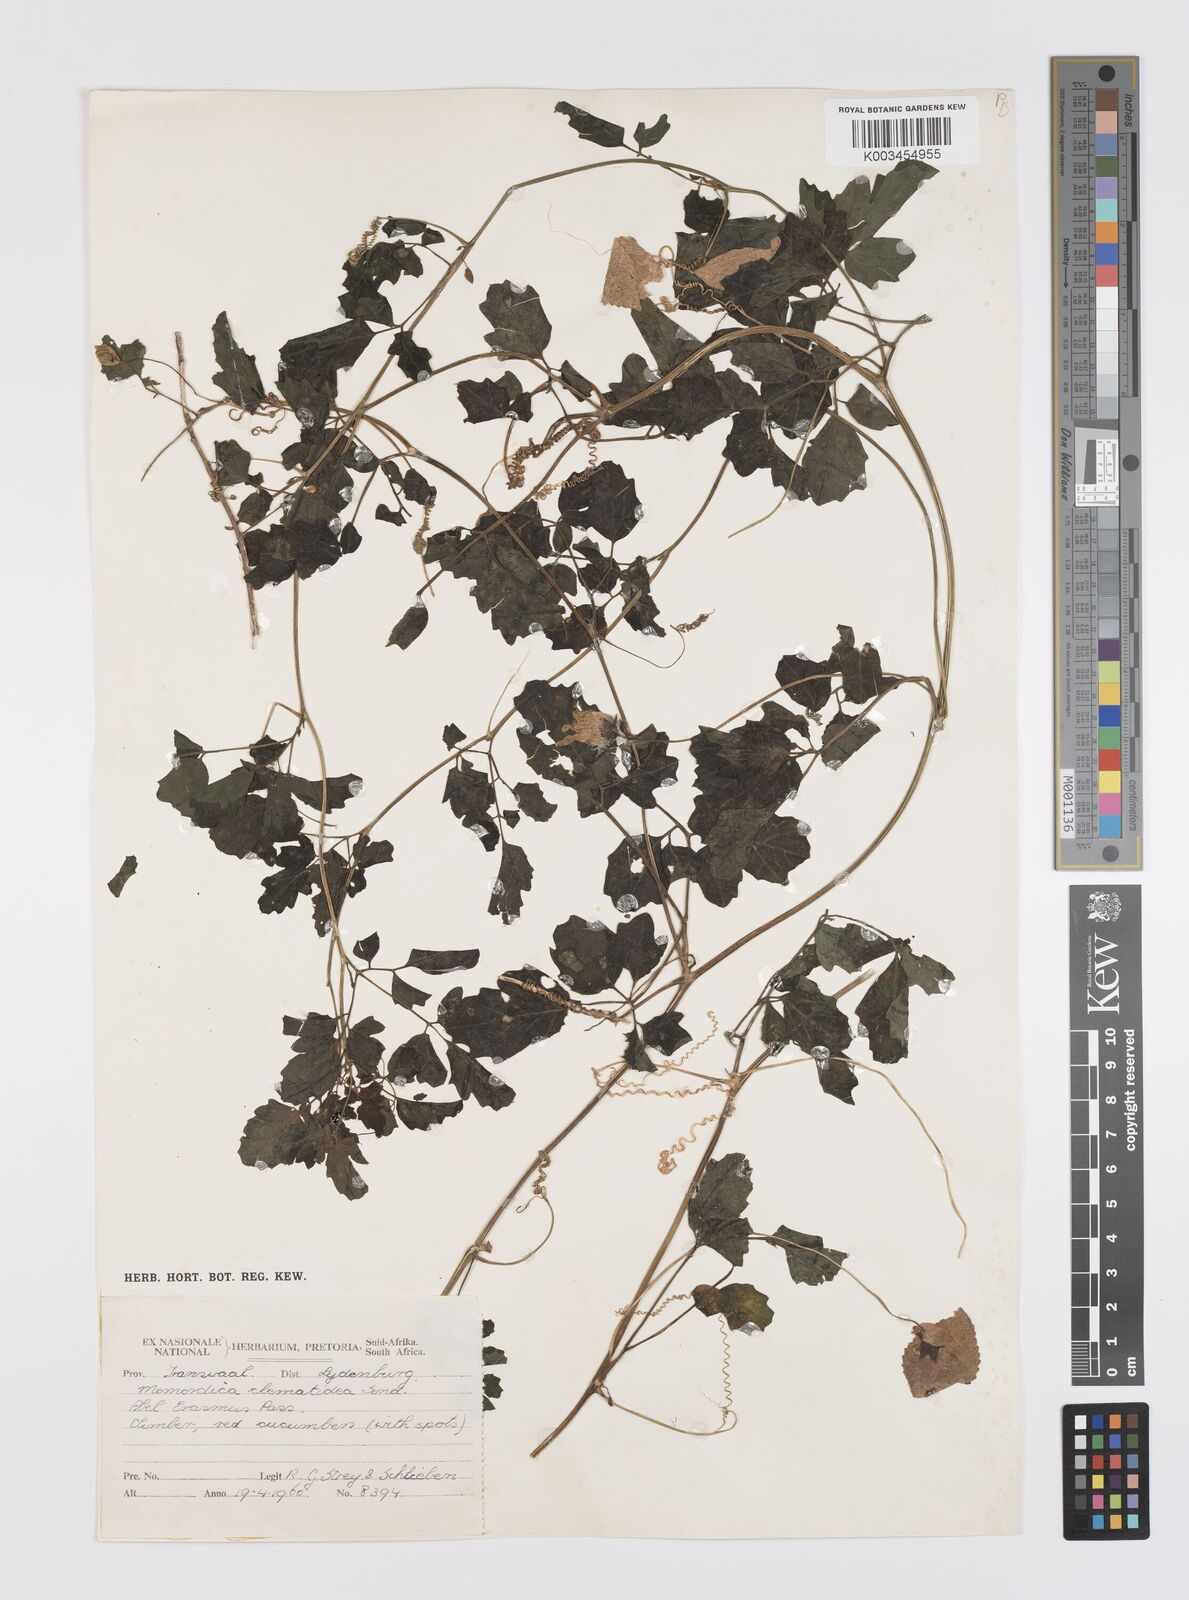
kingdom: Plantae
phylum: Tracheophyta
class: Magnoliopsida
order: Cucurbitales
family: Cucurbitaceae
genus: Momordica
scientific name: Momordica cardiospermoides
